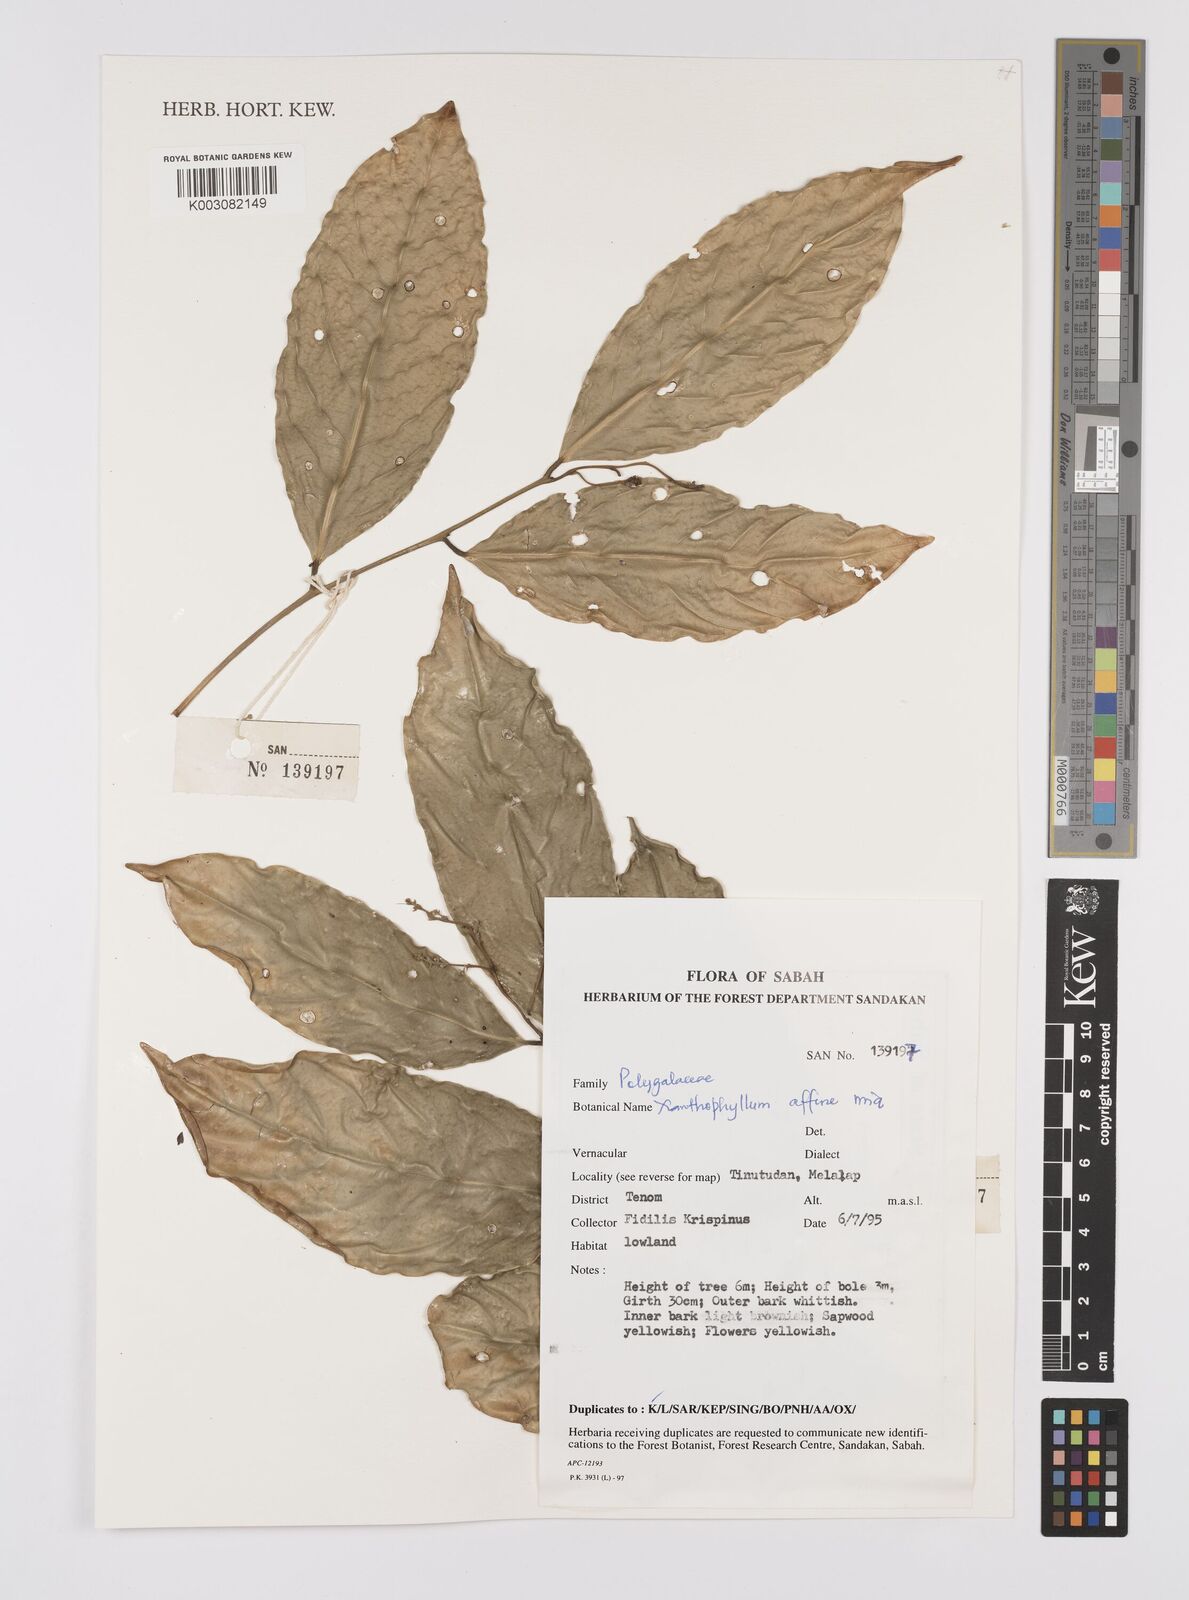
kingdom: Plantae
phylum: Tracheophyta
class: Magnoliopsida
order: Fabales
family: Polygalaceae
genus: Xanthophyllum
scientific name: Xanthophyllum flavescens
